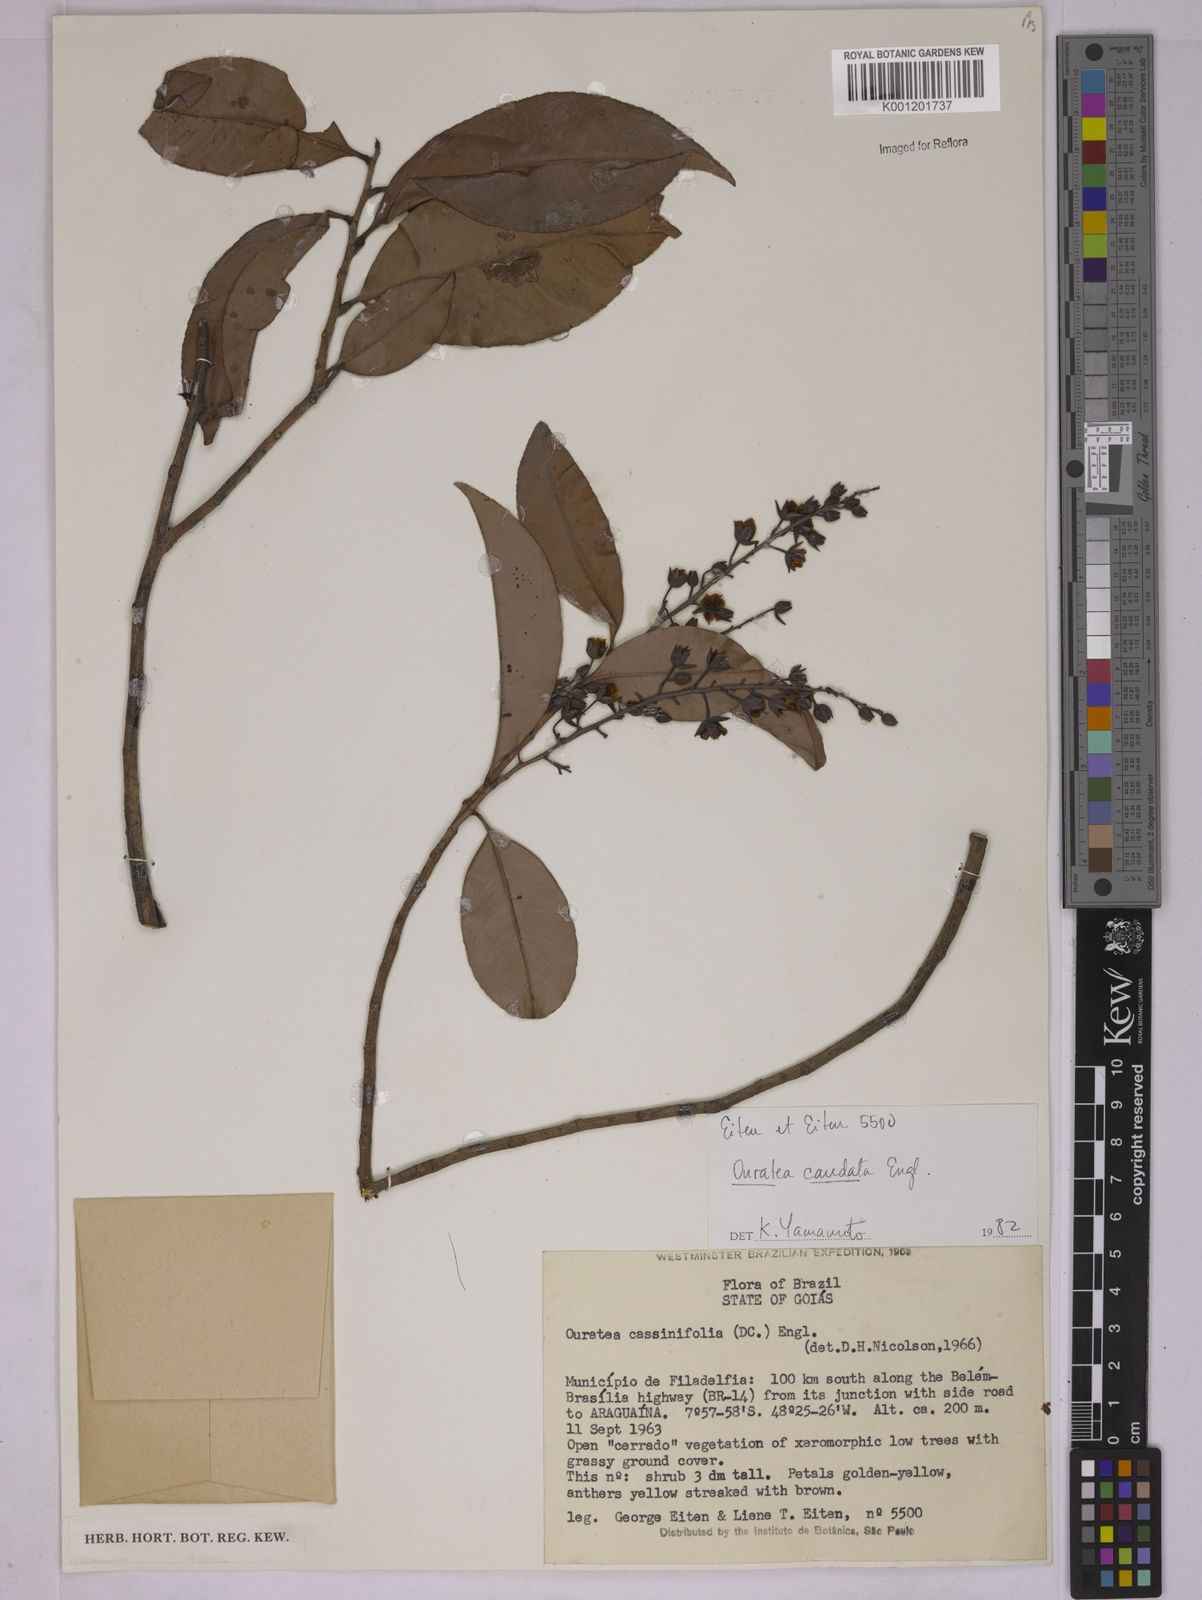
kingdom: Plantae
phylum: Tracheophyta
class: Magnoliopsida
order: Malpighiales
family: Ochnaceae
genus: Ouratea
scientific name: Ouratea caudata
